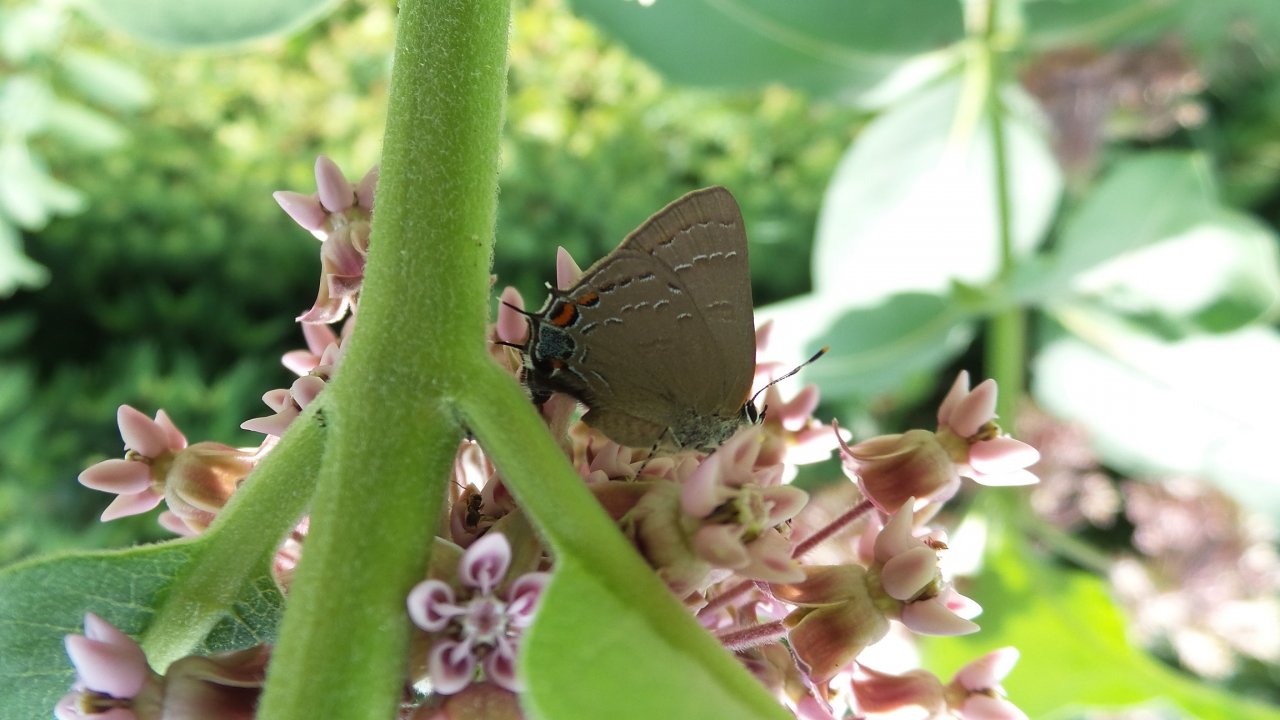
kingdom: Animalia
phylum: Arthropoda
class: Insecta
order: Lepidoptera
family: Lycaenidae
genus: Satyrium
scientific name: Satyrium calanus
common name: Banded Hairstreak
